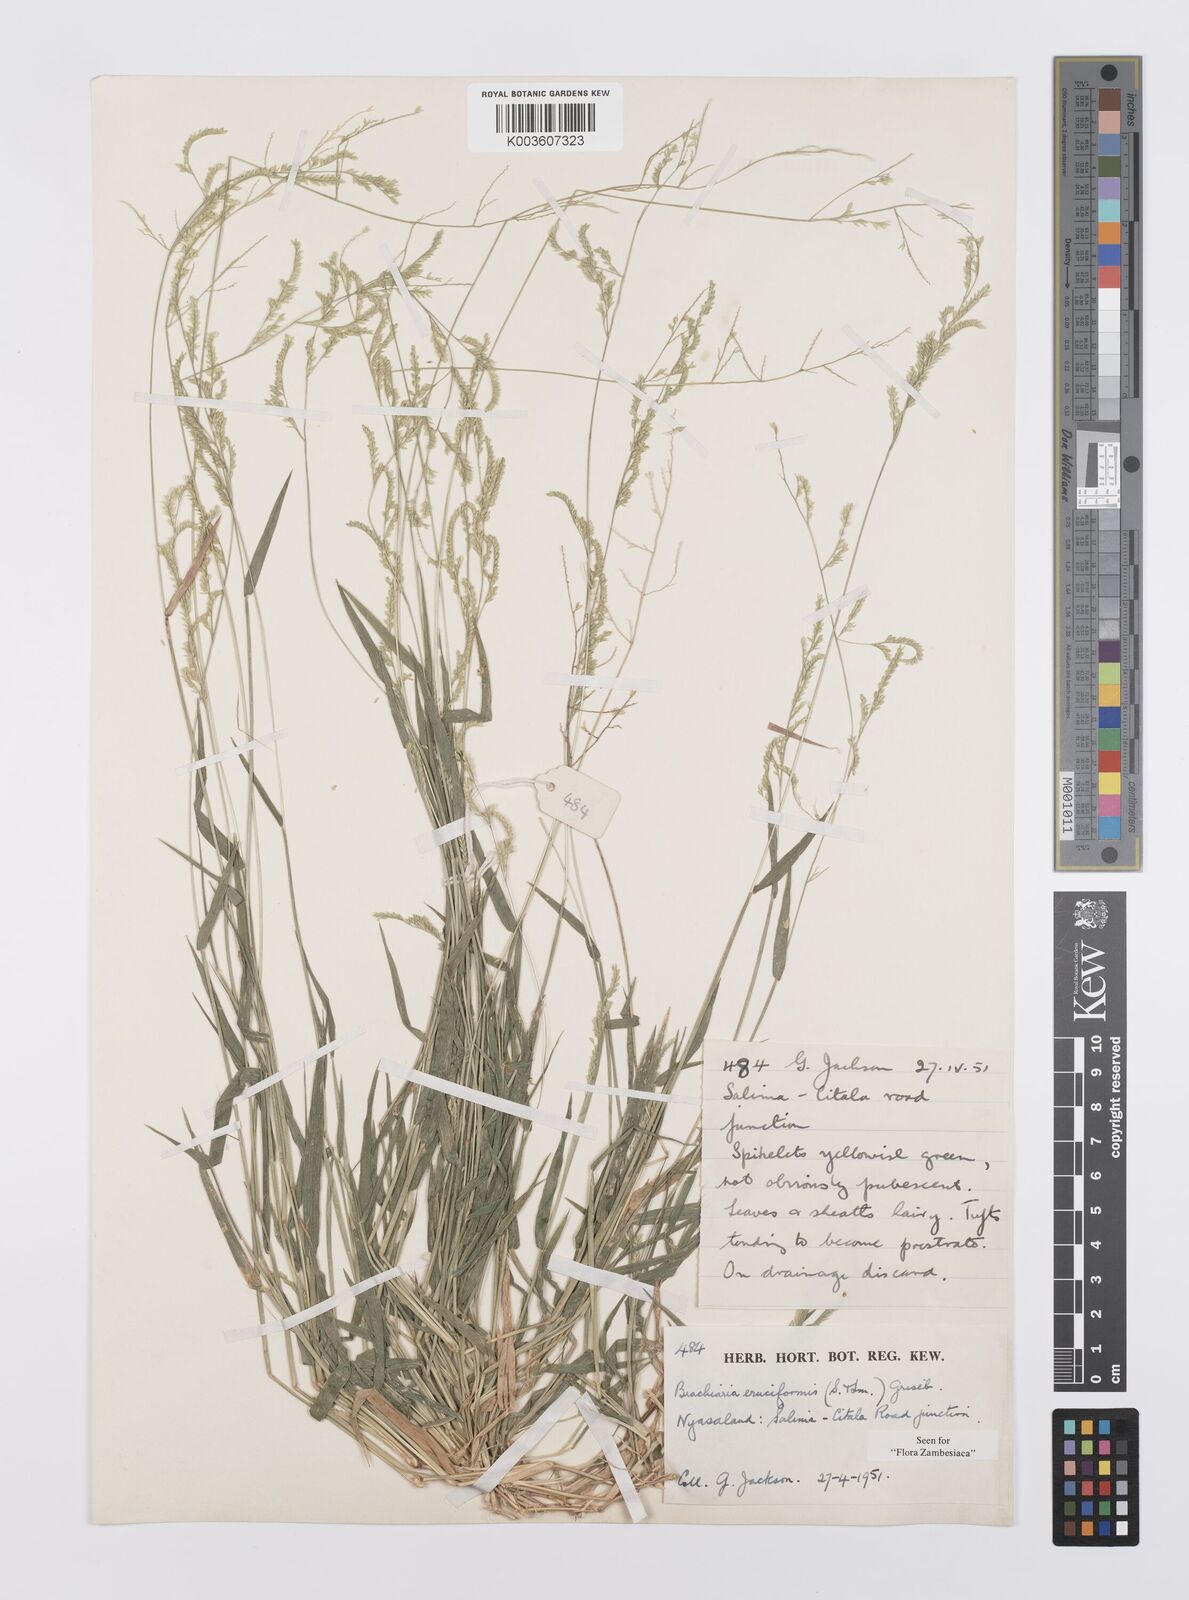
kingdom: Plantae
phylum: Tracheophyta
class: Liliopsida
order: Poales
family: Poaceae
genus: Moorochloa
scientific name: Moorochloa eruciformis
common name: Sweet signalgrass
